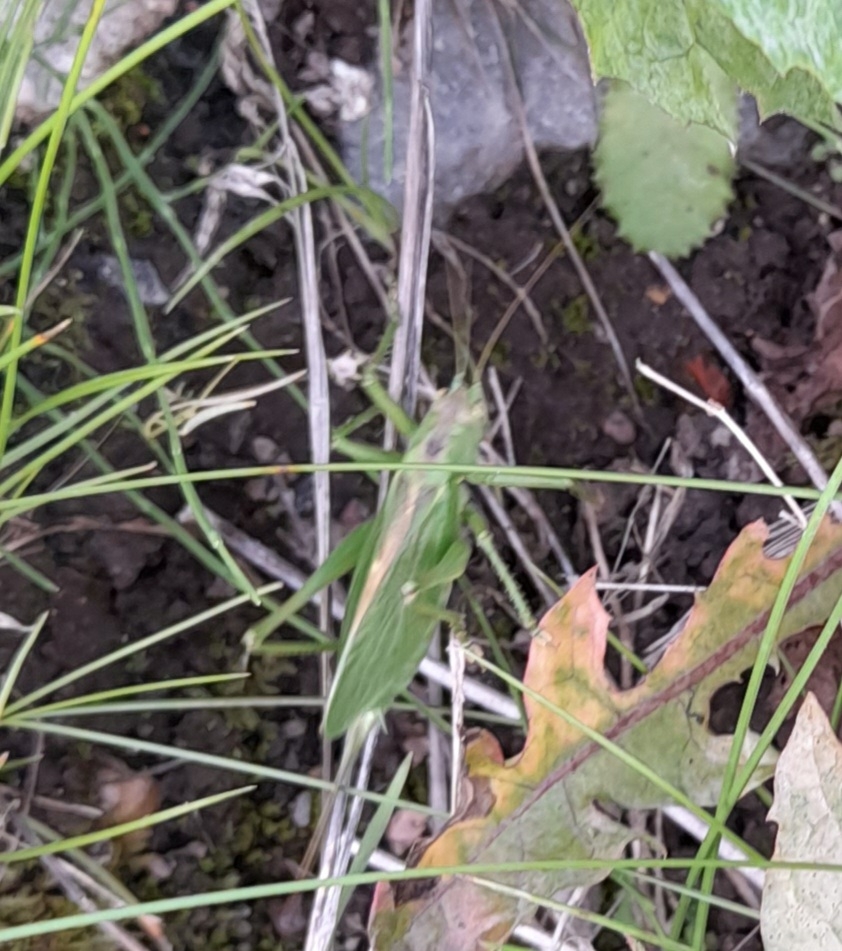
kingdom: Animalia
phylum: Arthropoda
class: Insecta
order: Orthoptera
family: Tettigoniidae
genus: Tettigonia
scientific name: Tettigonia cantans
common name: Syngende løvgræshoppe
